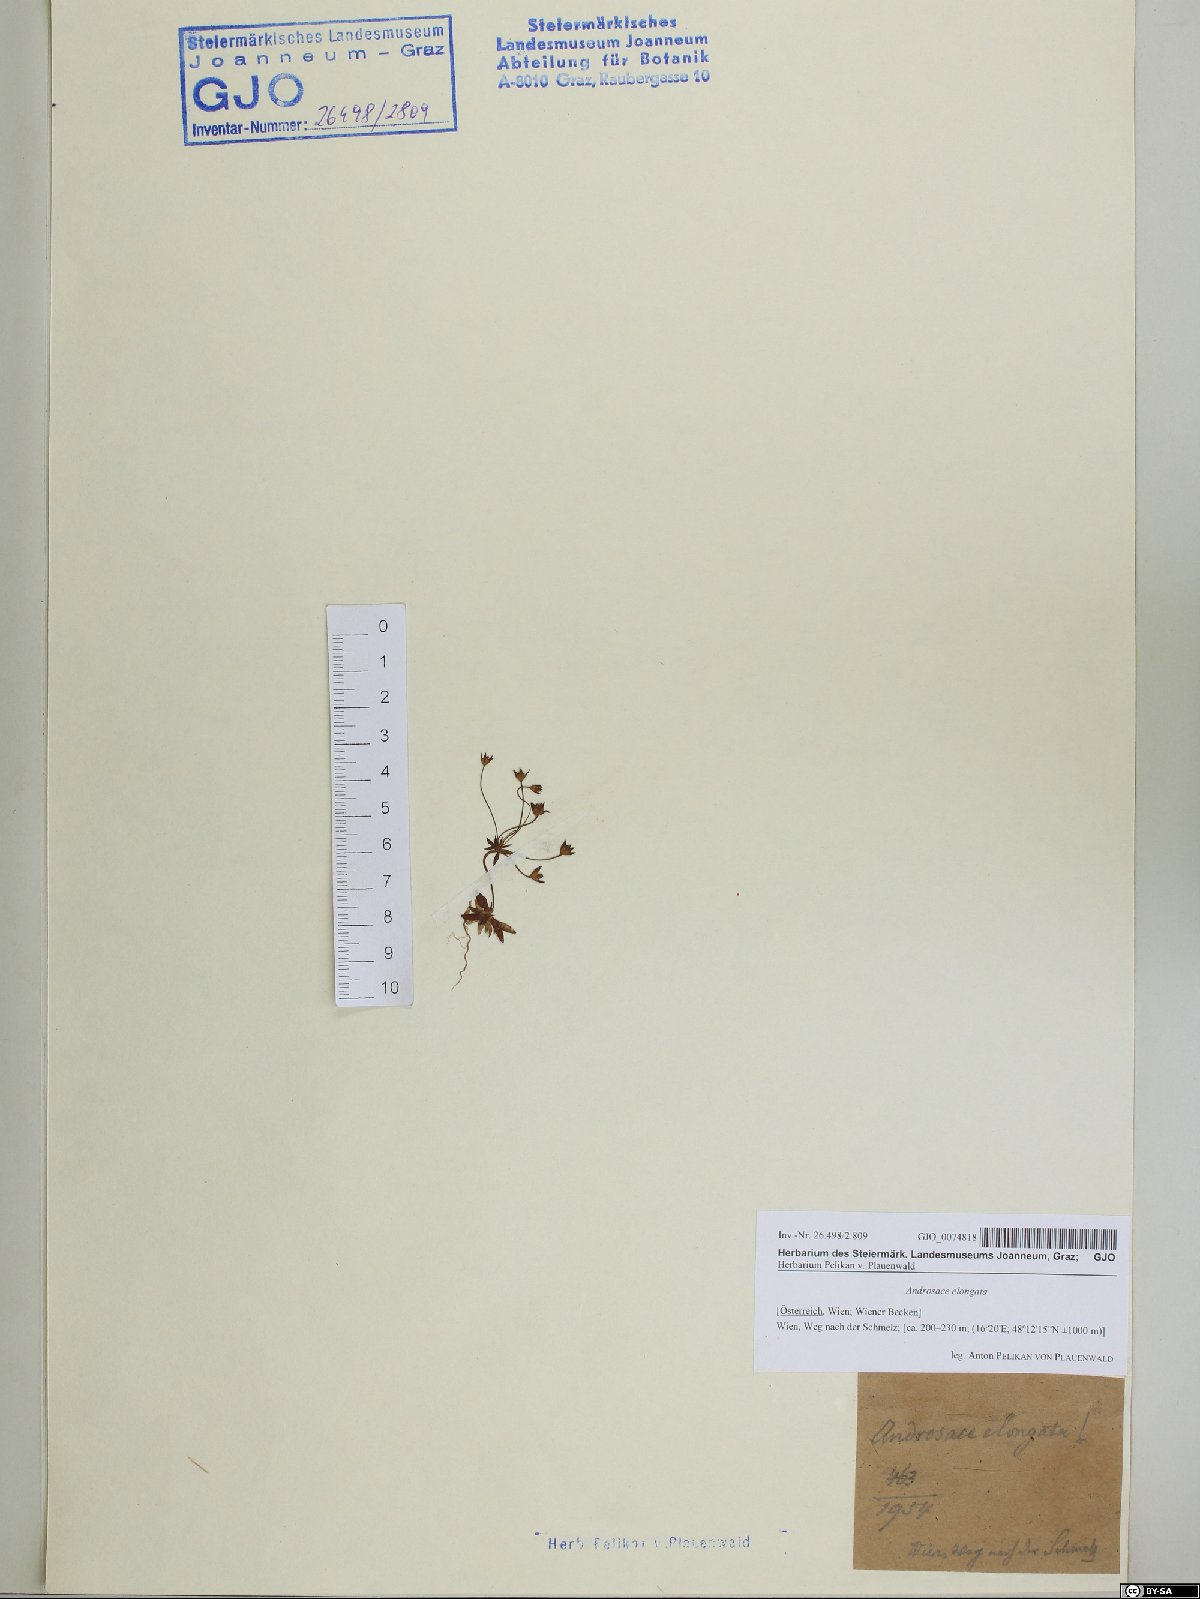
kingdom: Plantae
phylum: Tracheophyta
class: Magnoliopsida
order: Ericales
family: Primulaceae
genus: Androsace
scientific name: Androsace elongata
